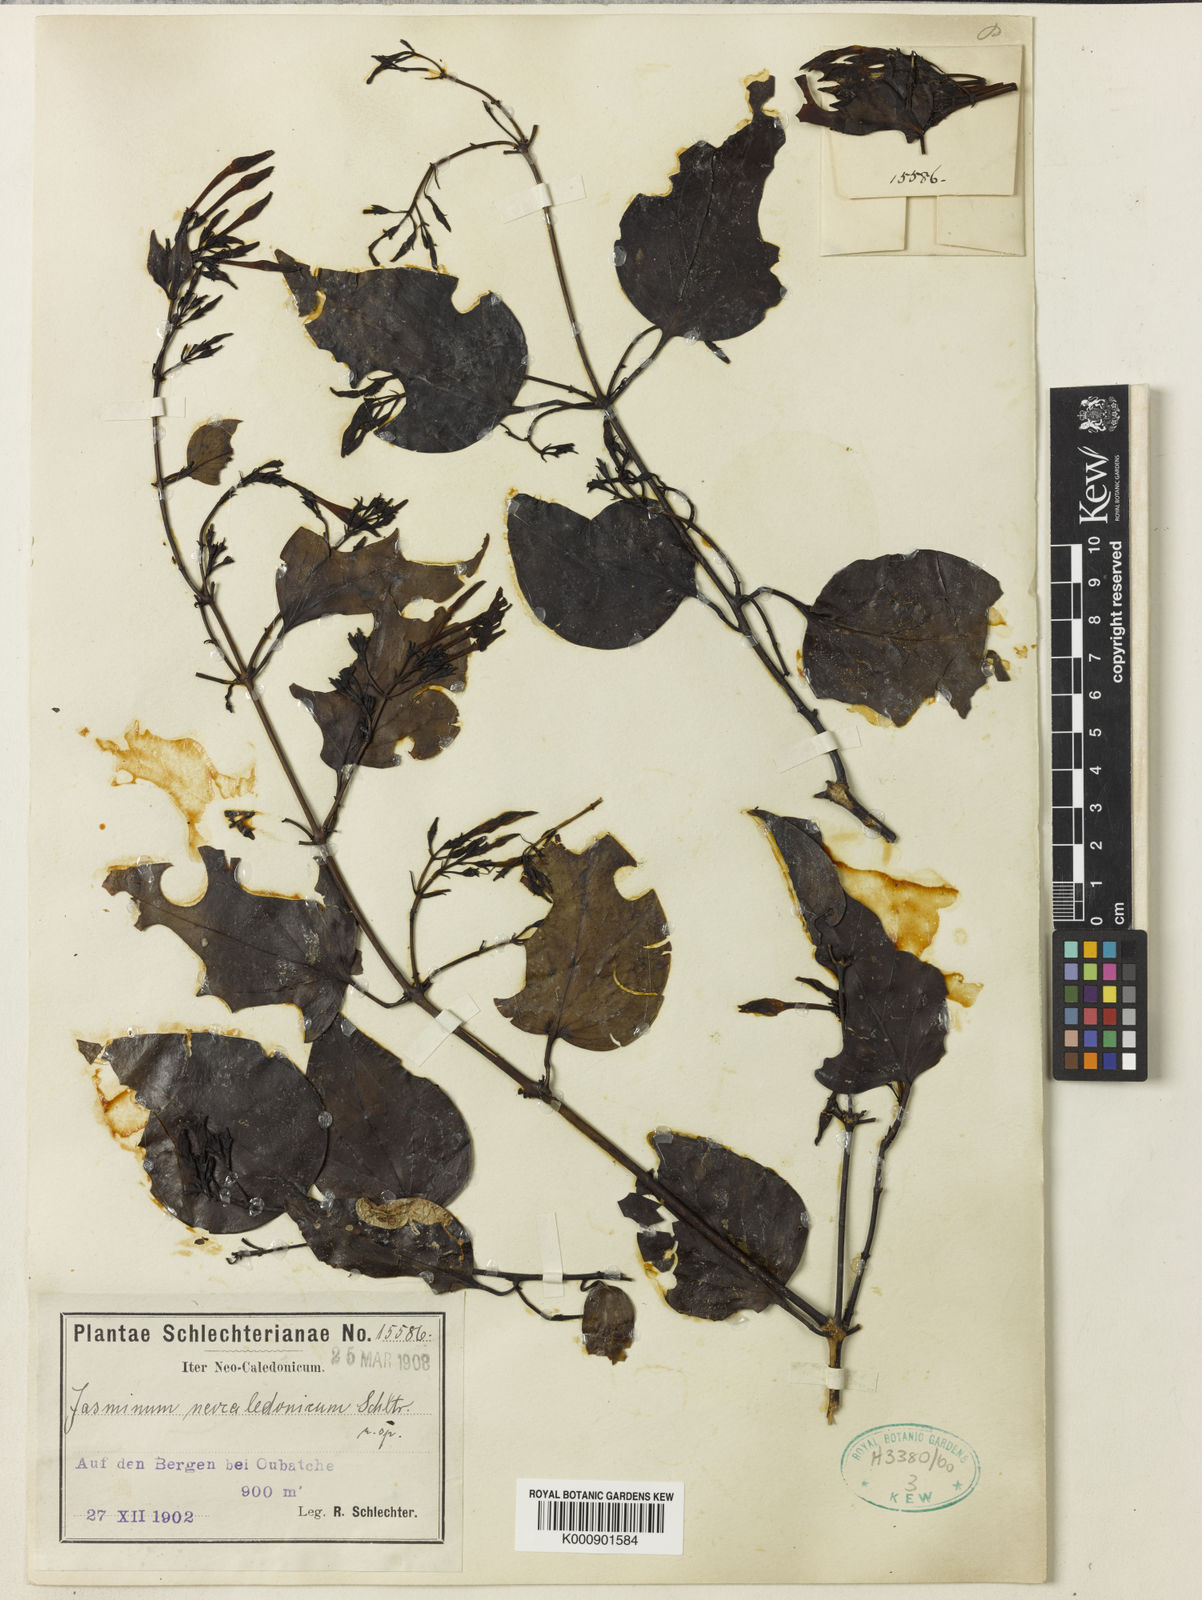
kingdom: Plantae
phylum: Tracheophyta
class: Magnoliopsida
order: Lamiales
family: Oleaceae
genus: Jasminum
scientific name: Jasminum neocaledonicum
